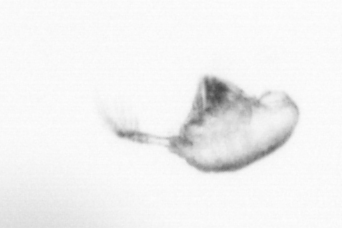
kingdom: Animalia
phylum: Arthropoda
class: Copepoda
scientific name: Copepoda
